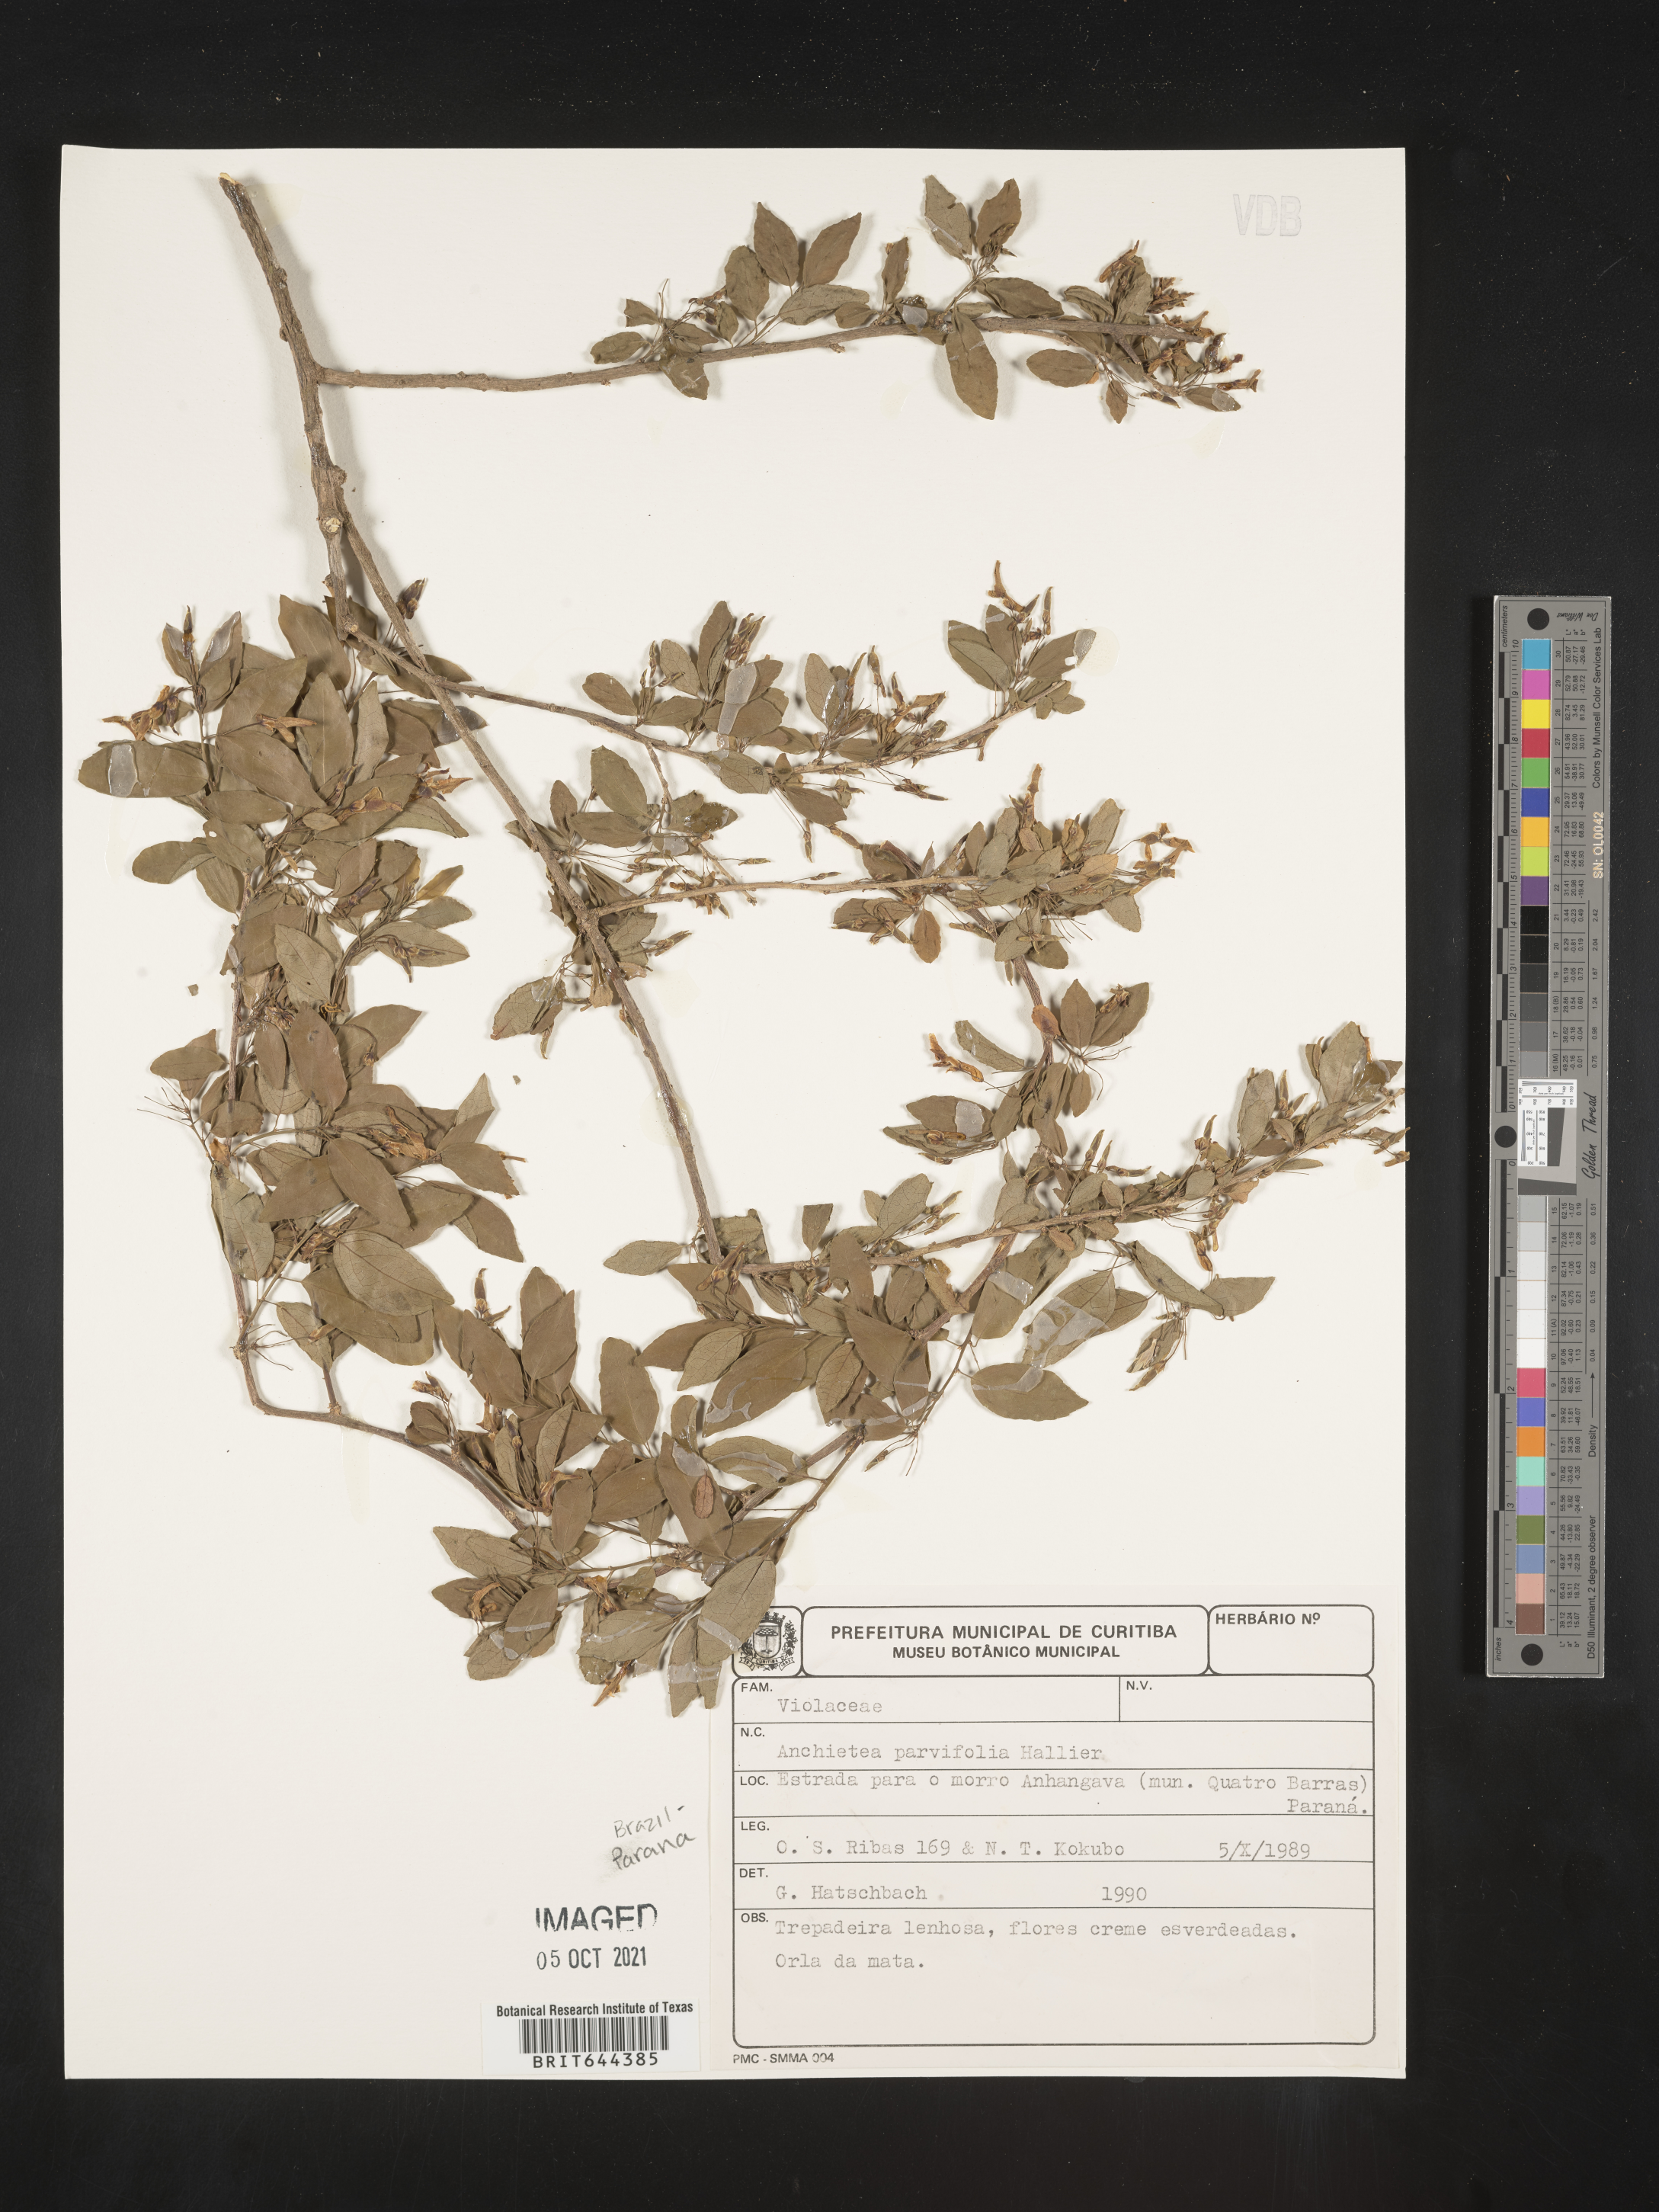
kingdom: Plantae
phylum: Tracheophyta
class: Magnoliopsida
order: Malpighiales
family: Violaceae
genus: Anchietea
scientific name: Anchietea
